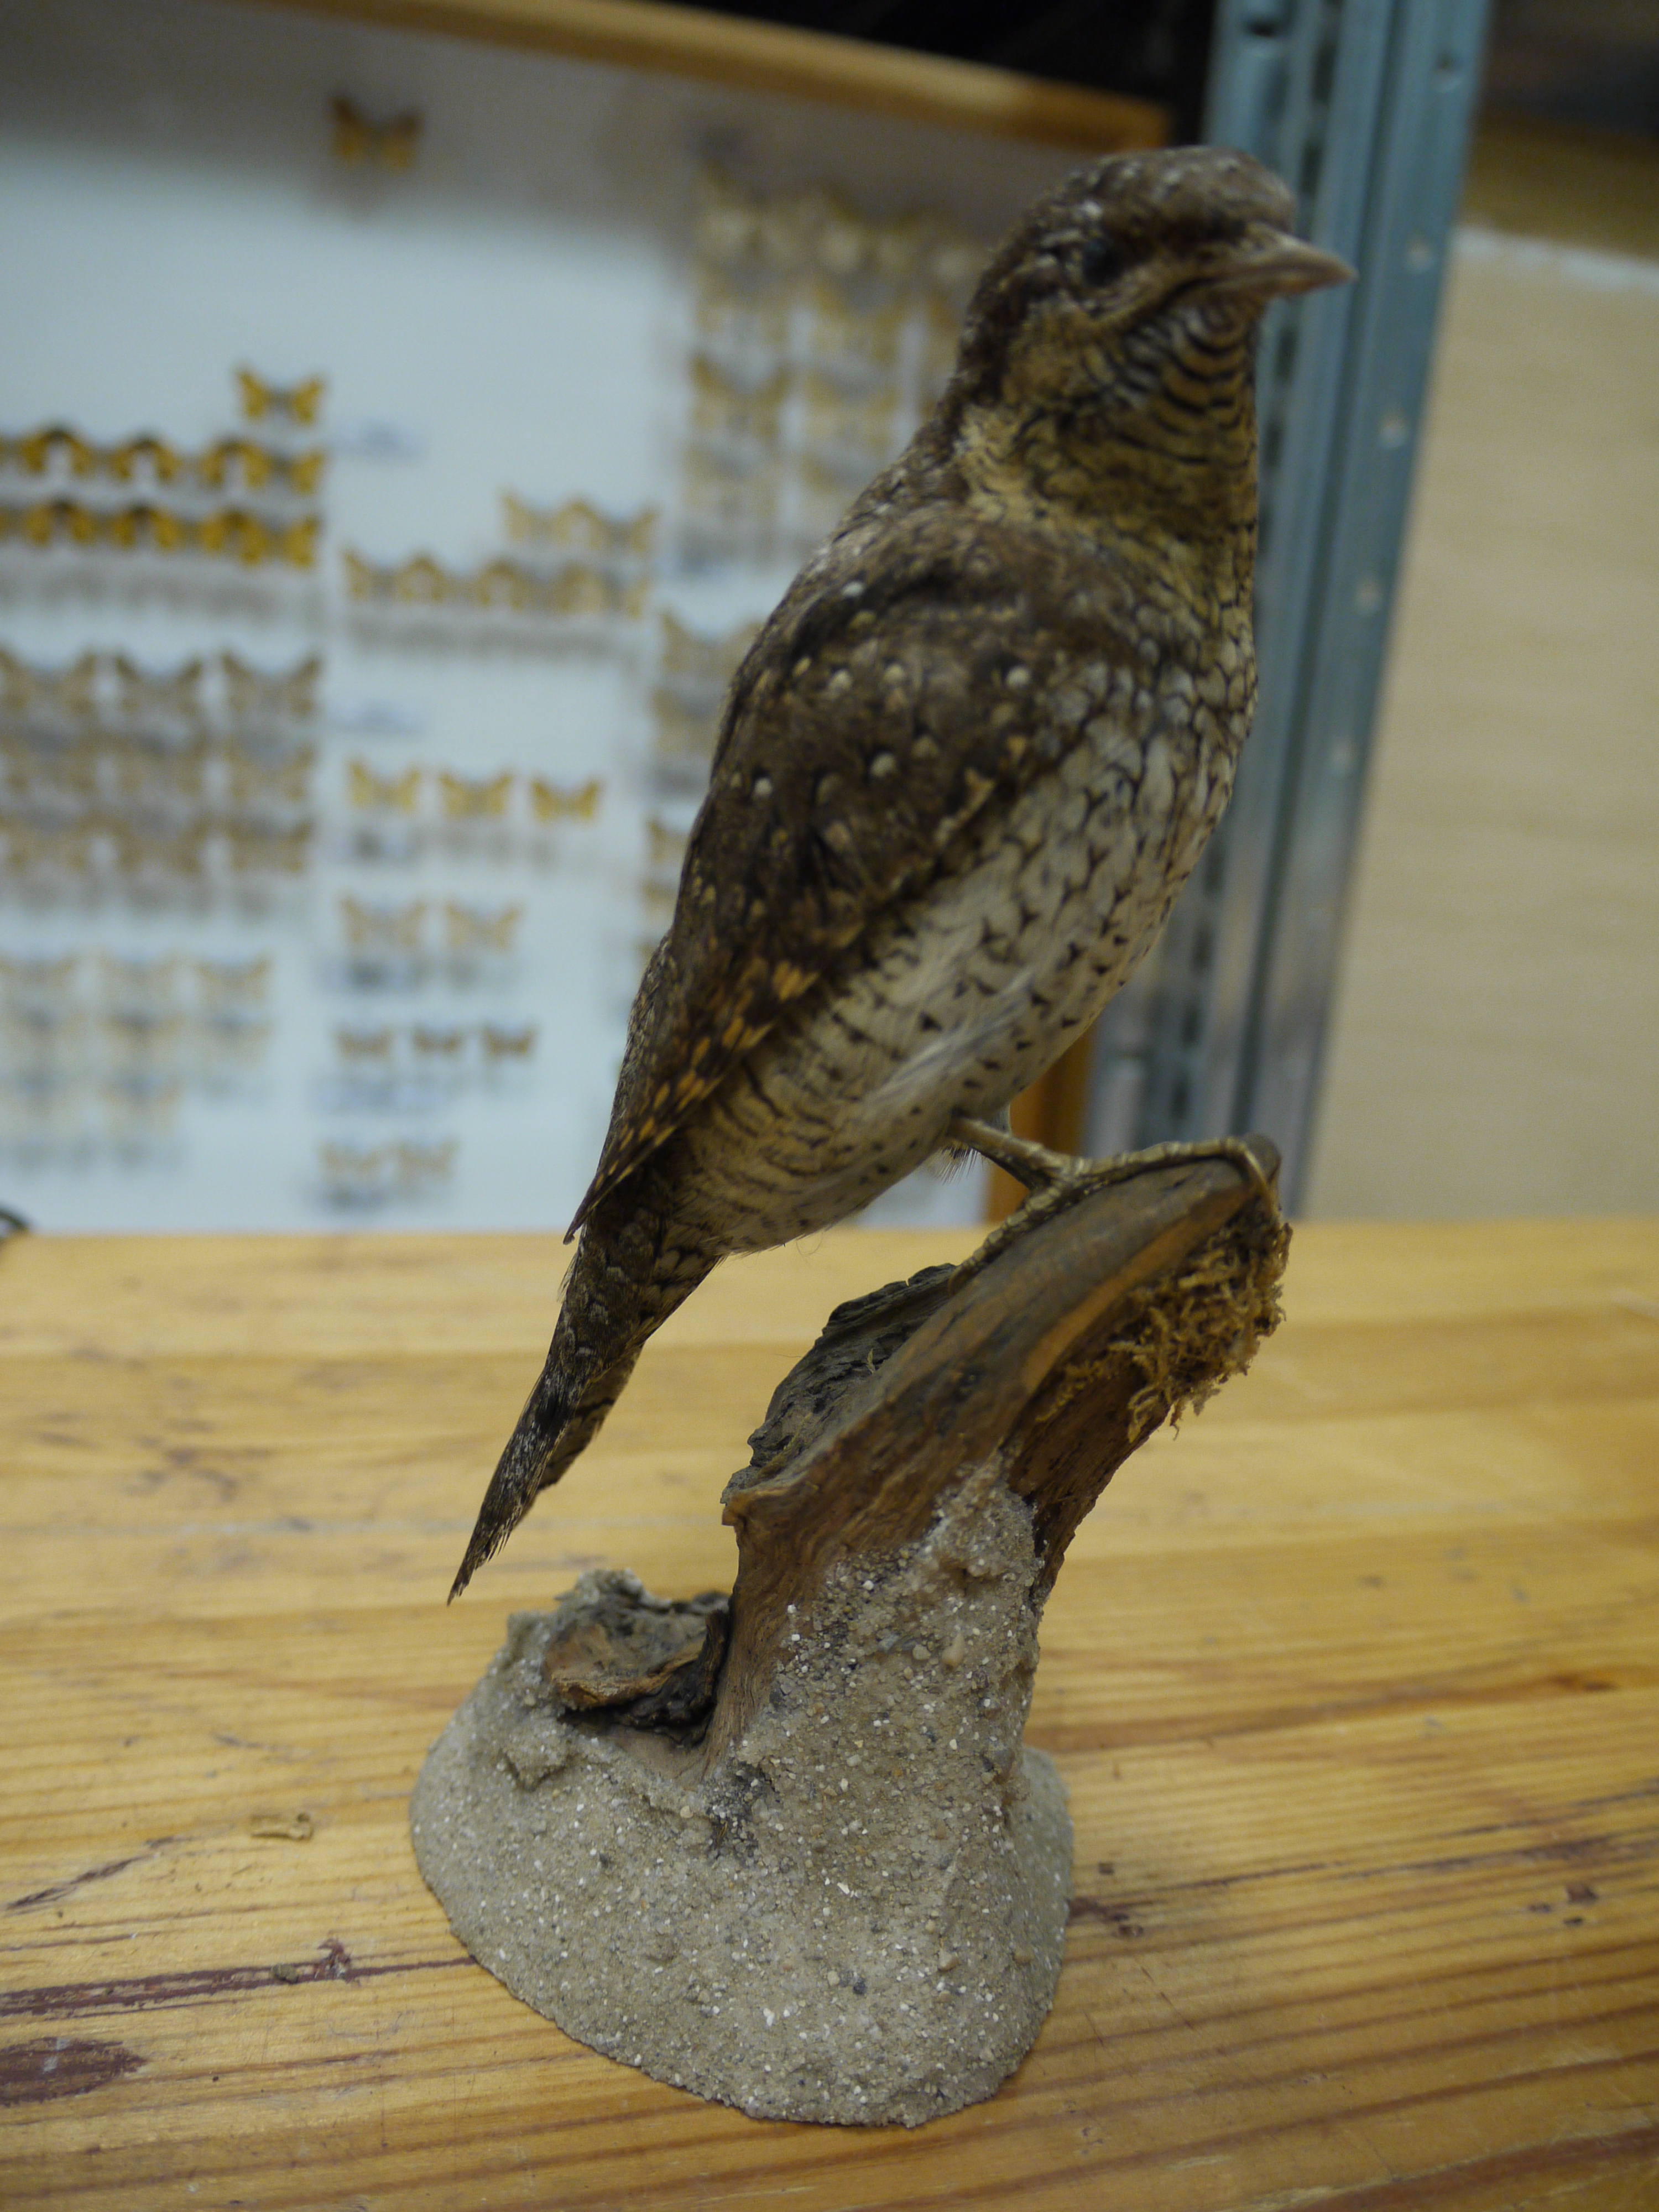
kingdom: Animalia
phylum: Chordata
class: Aves
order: Piciformes
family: Picidae
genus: Jynx
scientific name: Jynx torquilla
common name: Eurasian wryneck
